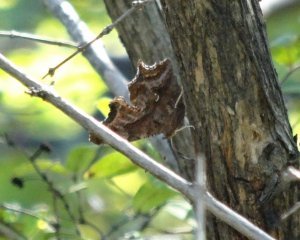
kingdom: Animalia
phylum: Arthropoda
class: Insecta
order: Lepidoptera
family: Nymphalidae
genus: Polygonia
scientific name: Polygonia interrogationis
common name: Question Mark
